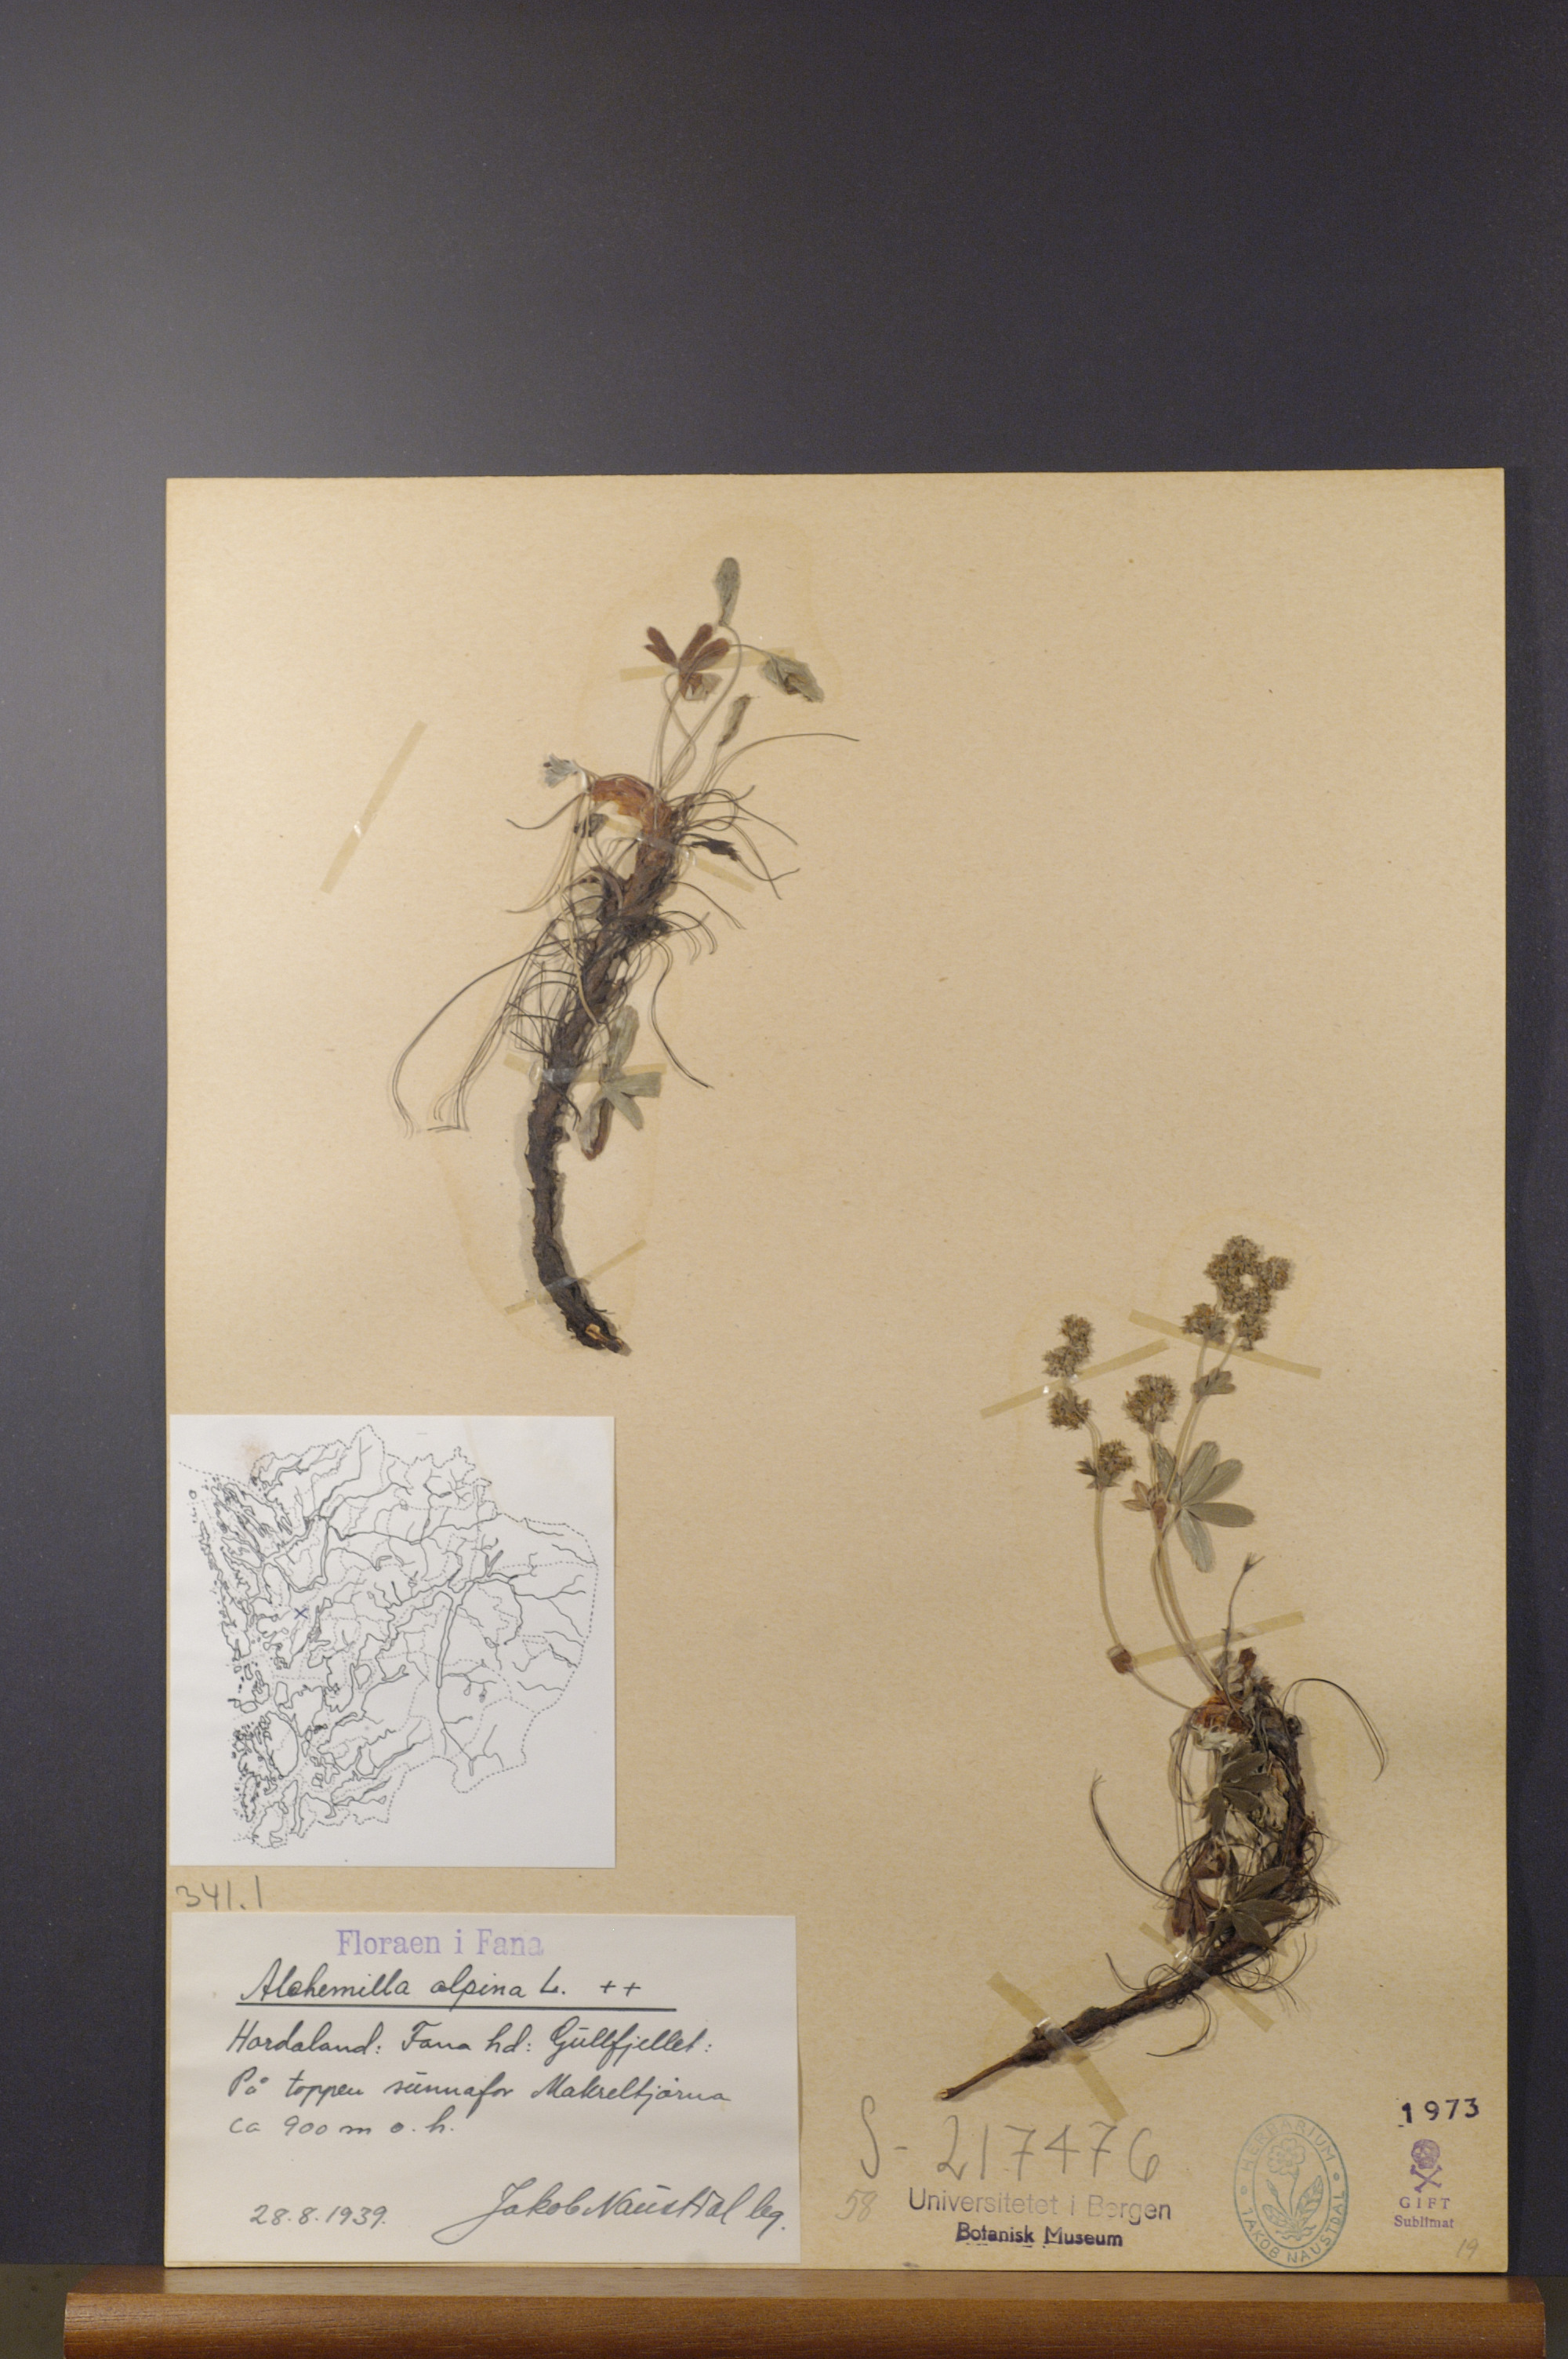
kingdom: Plantae
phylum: Tracheophyta
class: Magnoliopsida
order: Rosales
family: Rosaceae
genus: Alchemilla
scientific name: Alchemilla alpina
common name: Alpine lady's-mantle
